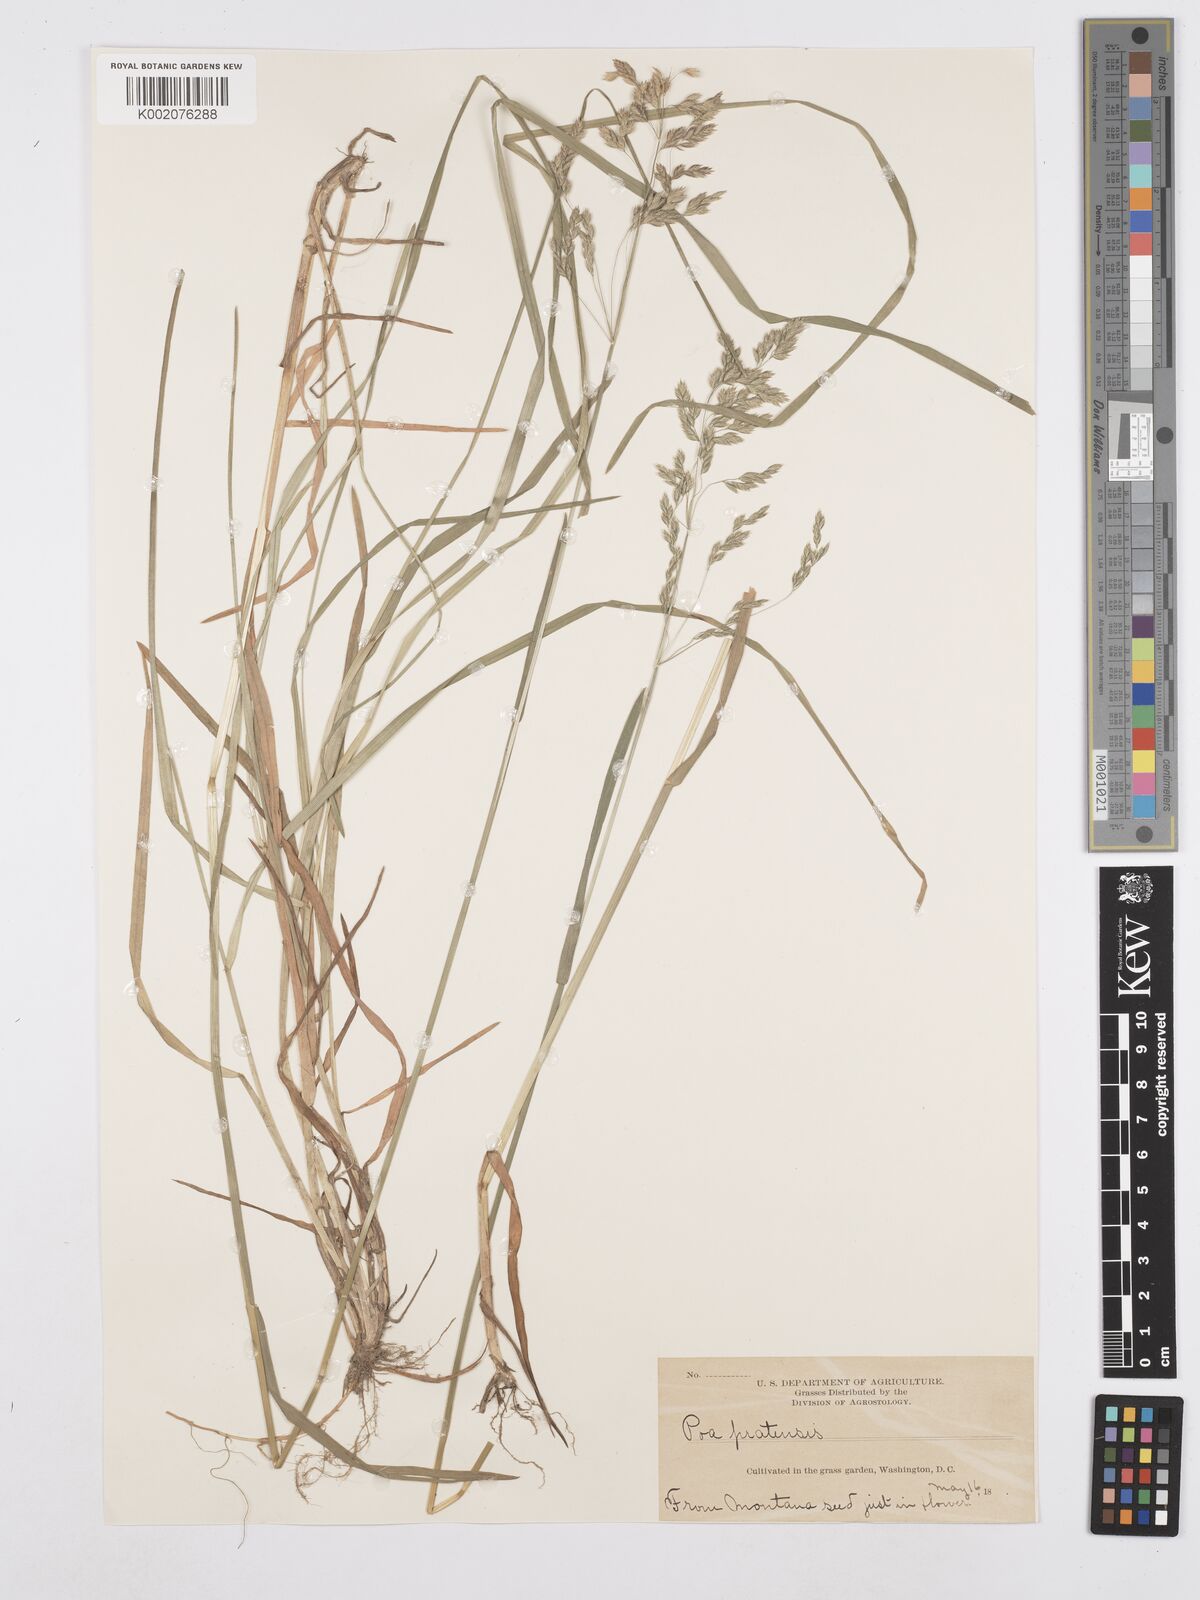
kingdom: Plantae
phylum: Tracheophyta
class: Liliopsida
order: Poales
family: Poaceae
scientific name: Poaceae
